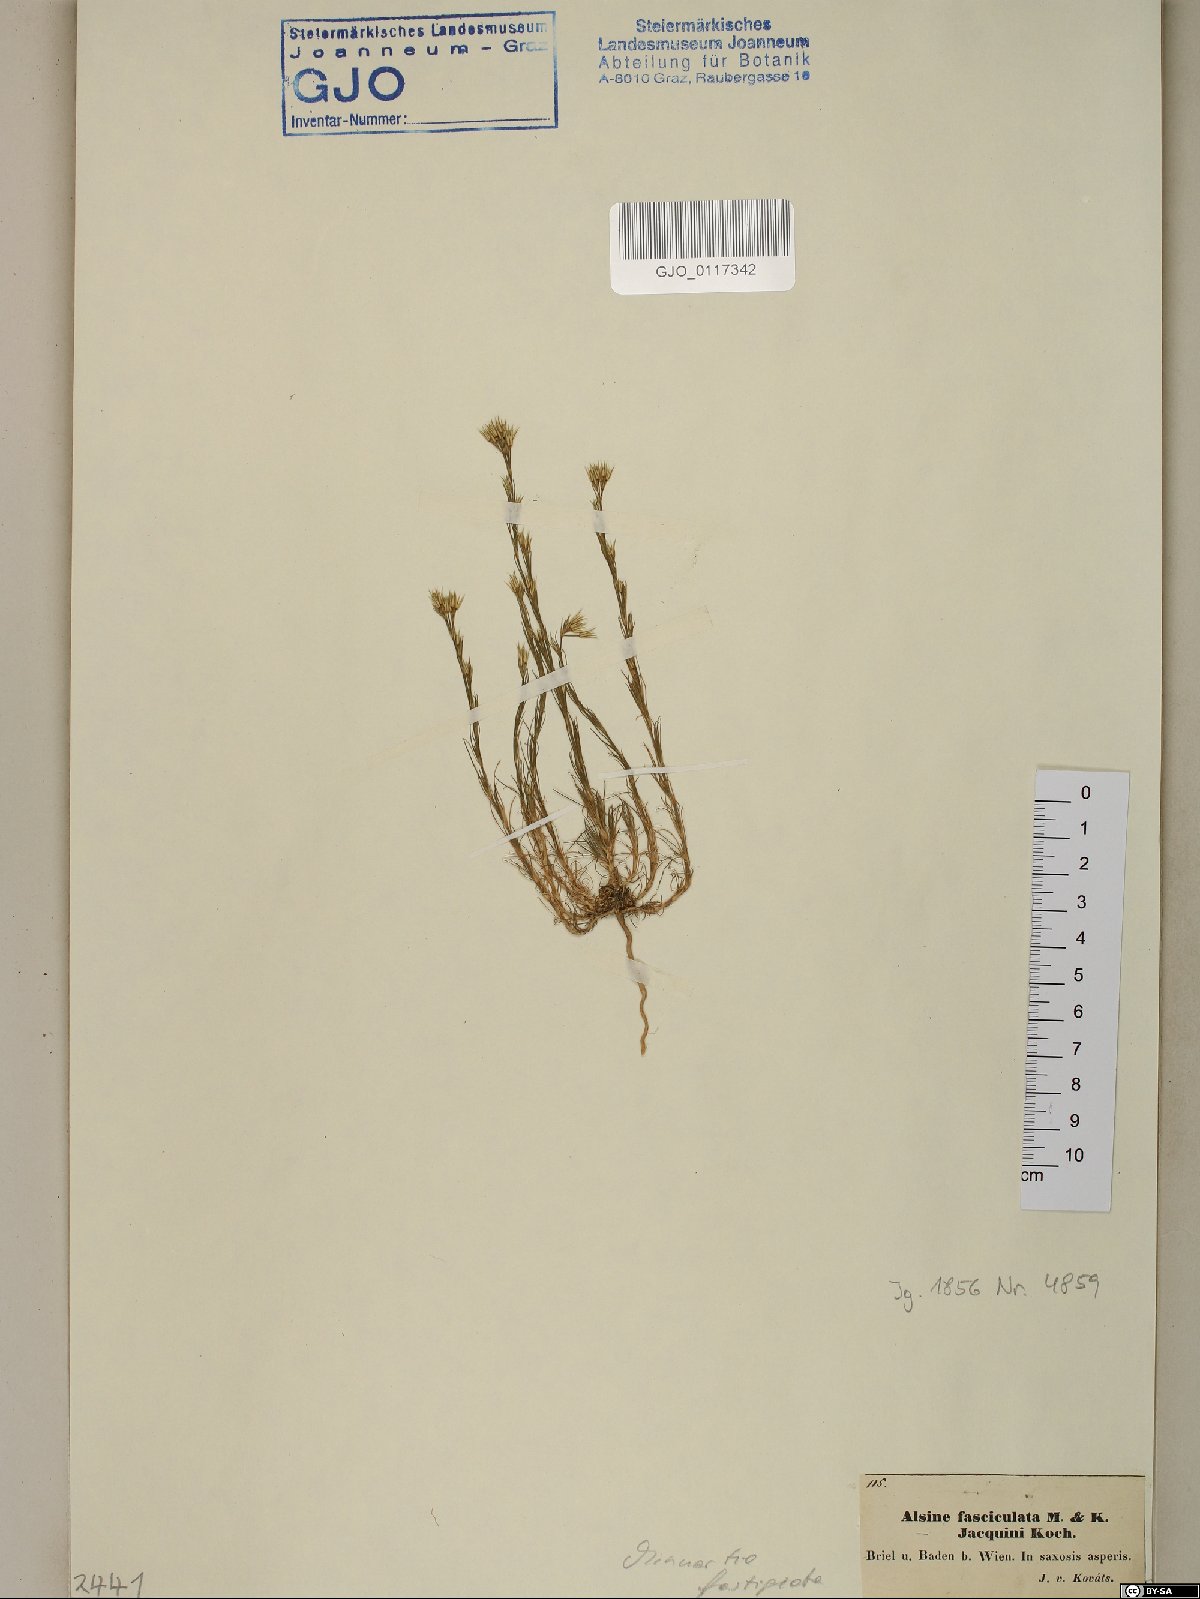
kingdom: Plantae
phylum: Tracheophyta
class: Magnoliopsida
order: Caryophyllales
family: Caryophyllaceae
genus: Minuartia
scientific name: Minuartia mucronata
